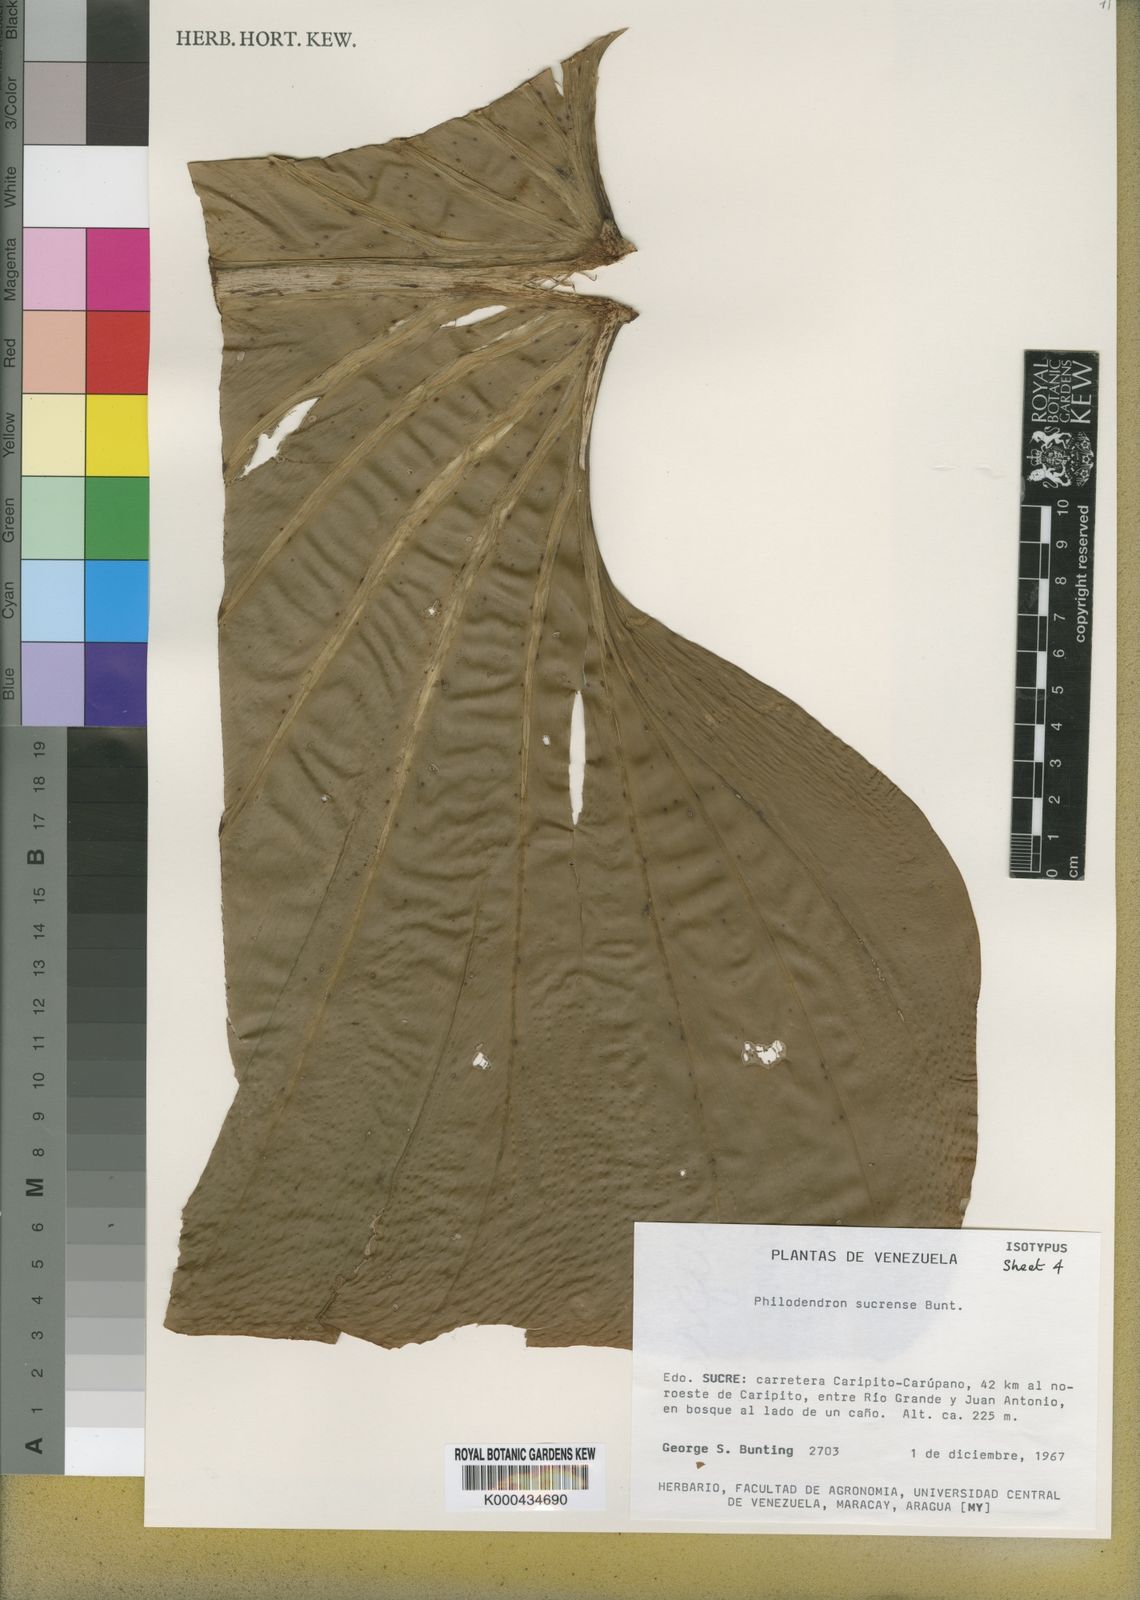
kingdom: Plantae
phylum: Tracheophyta
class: Liliopsida
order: Alismatales
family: Araceae
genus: Philodendron
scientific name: Philodendron sucrense
